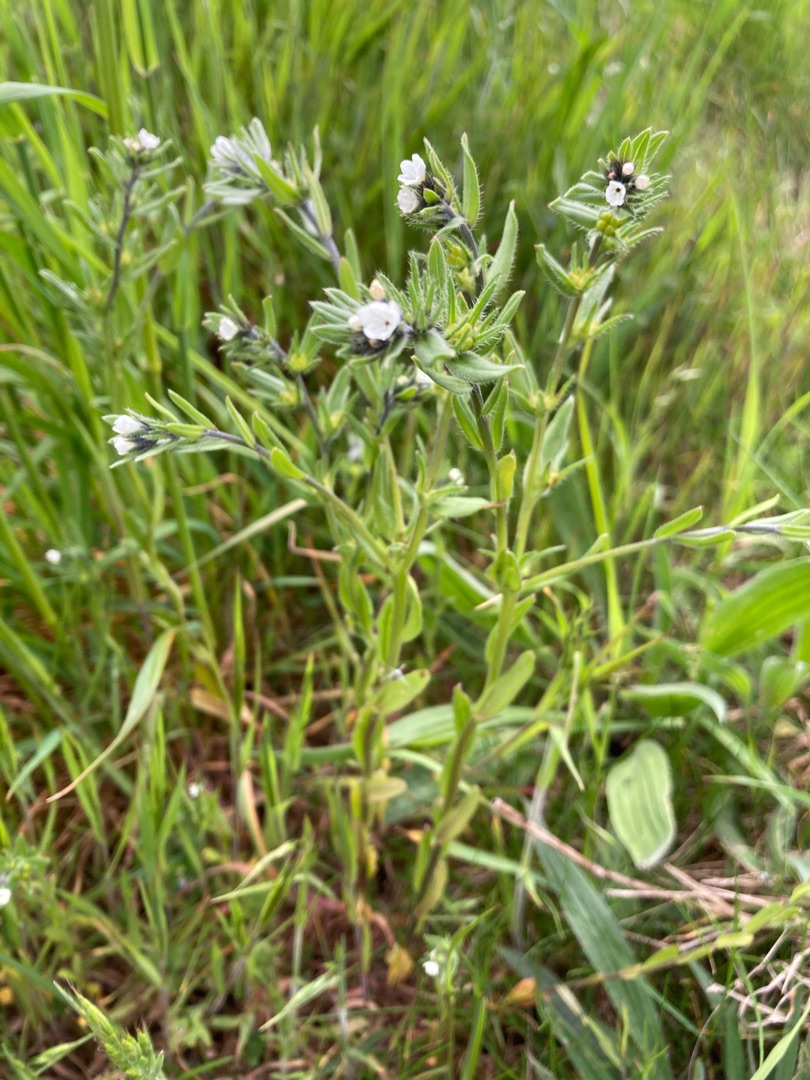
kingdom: Plantae
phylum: Tracheophyta
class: Magnoliopsida
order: Boraginales
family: Boraginaceae
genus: Buglossoides
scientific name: Buglossoides arvensis
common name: Rynket stenfrø
